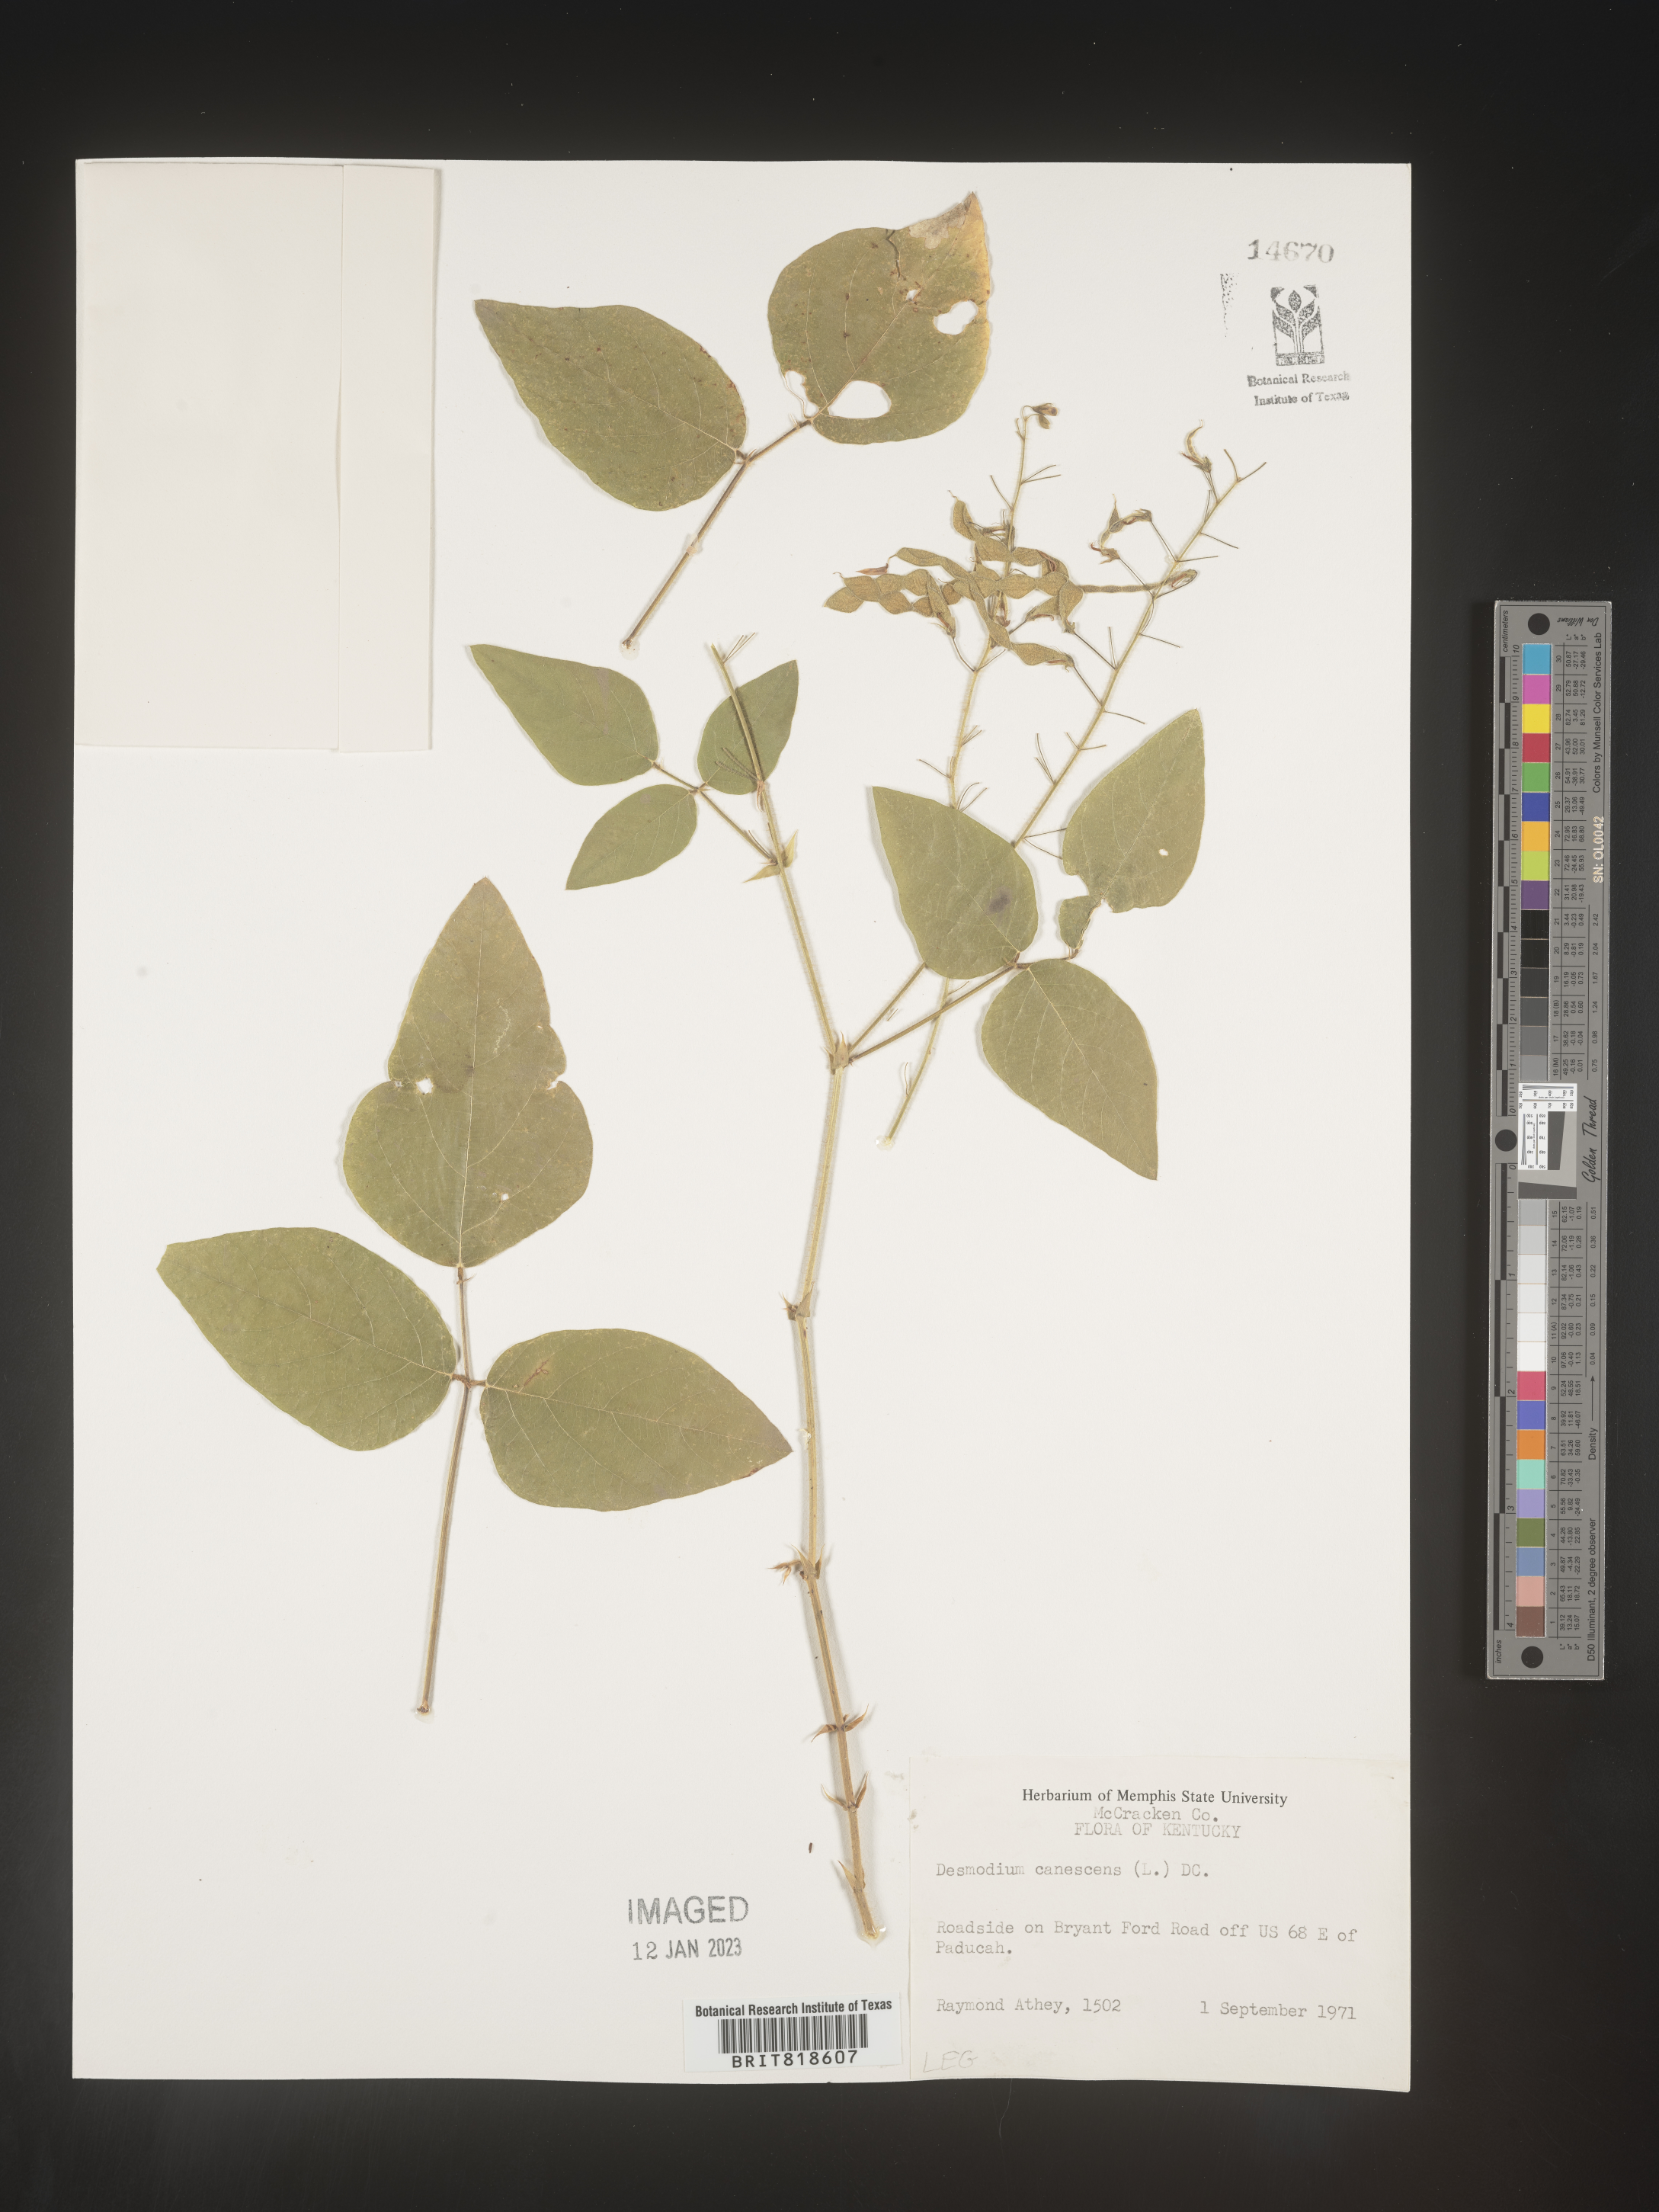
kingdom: Plantae
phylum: Tracheophyta
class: Magnoliopsida
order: Fabales
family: Fabaceae
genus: Desmodium
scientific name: Desmodium canescens
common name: Hoary tick-clover
